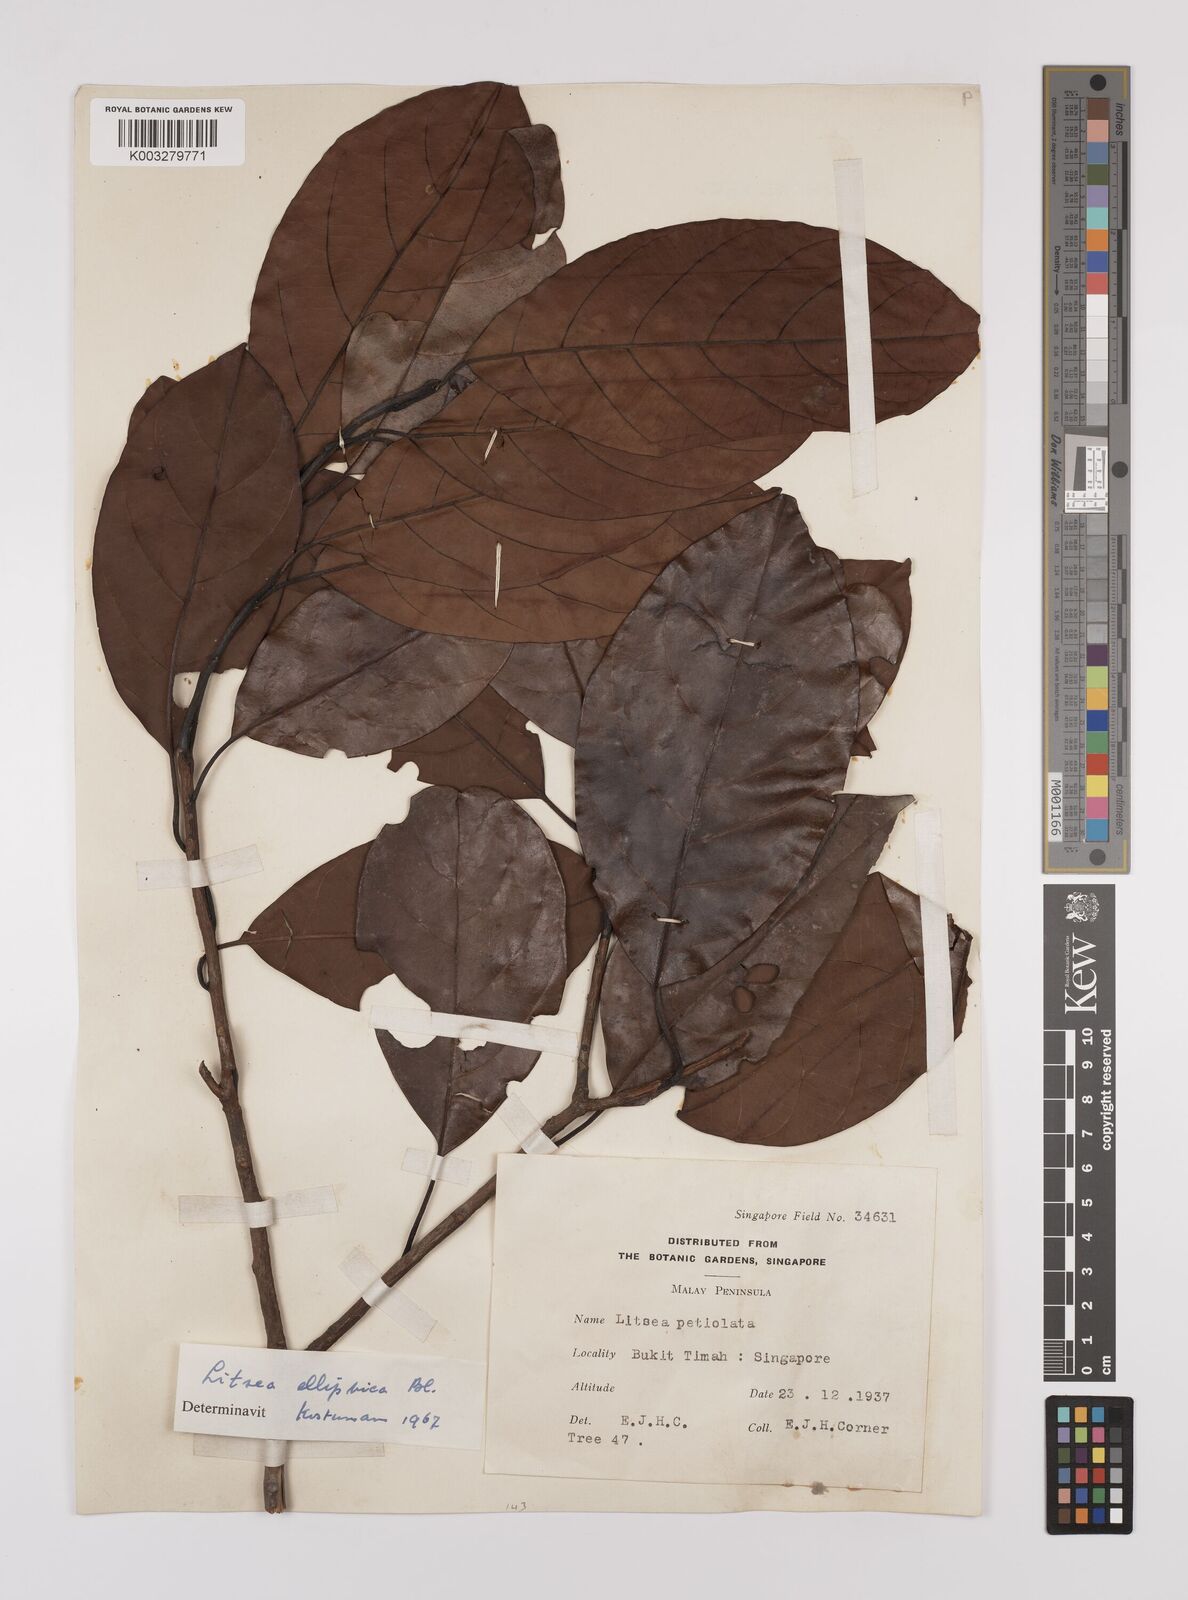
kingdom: Plantae
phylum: Tracheophyta
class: Magnoliopsida
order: Laurales
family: Lauraceae
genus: Litsea
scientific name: Litsea elliptica
